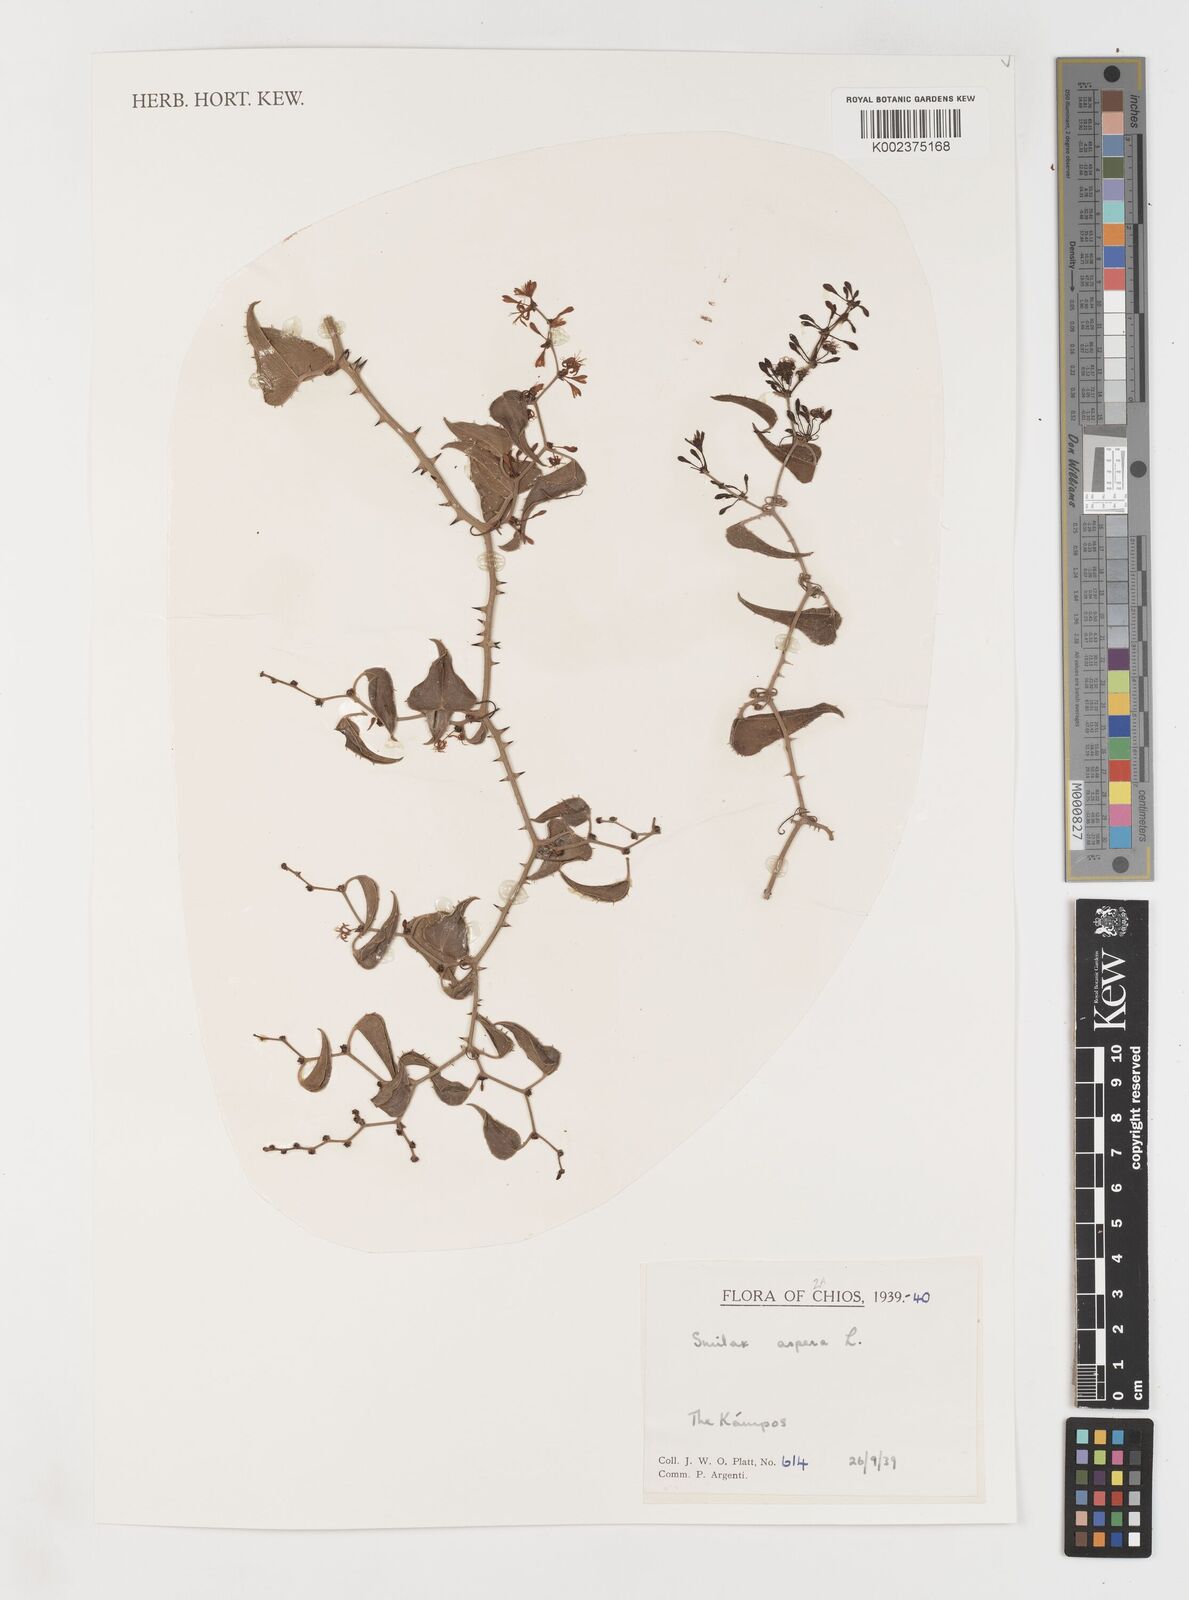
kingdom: Plantae
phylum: Tracheophyta
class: Liliopsida
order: Liliales
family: Smilacaceae
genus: Smilax
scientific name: Smilax aspera
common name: Common smilax
